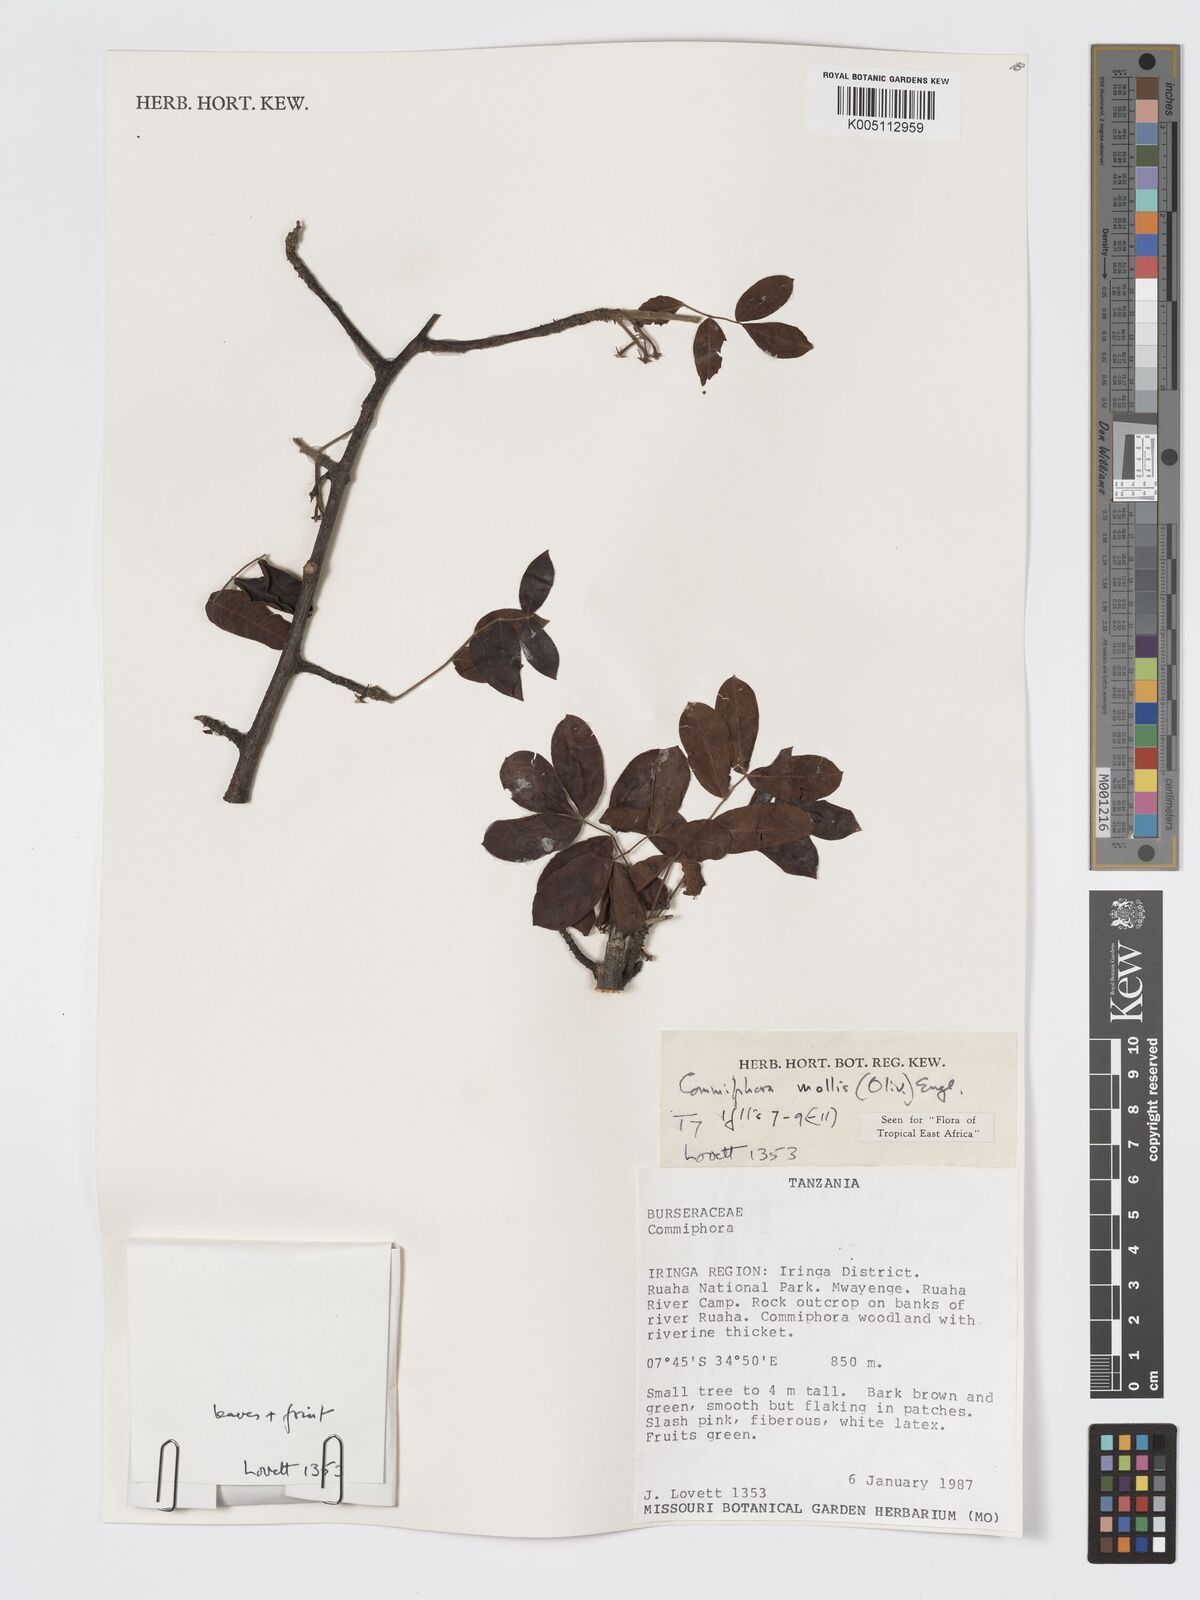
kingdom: Plantae
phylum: Tracheophyta
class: Magnoliopsida
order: Sapindales
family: Burseraceae
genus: Commiphora
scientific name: Commiphora
